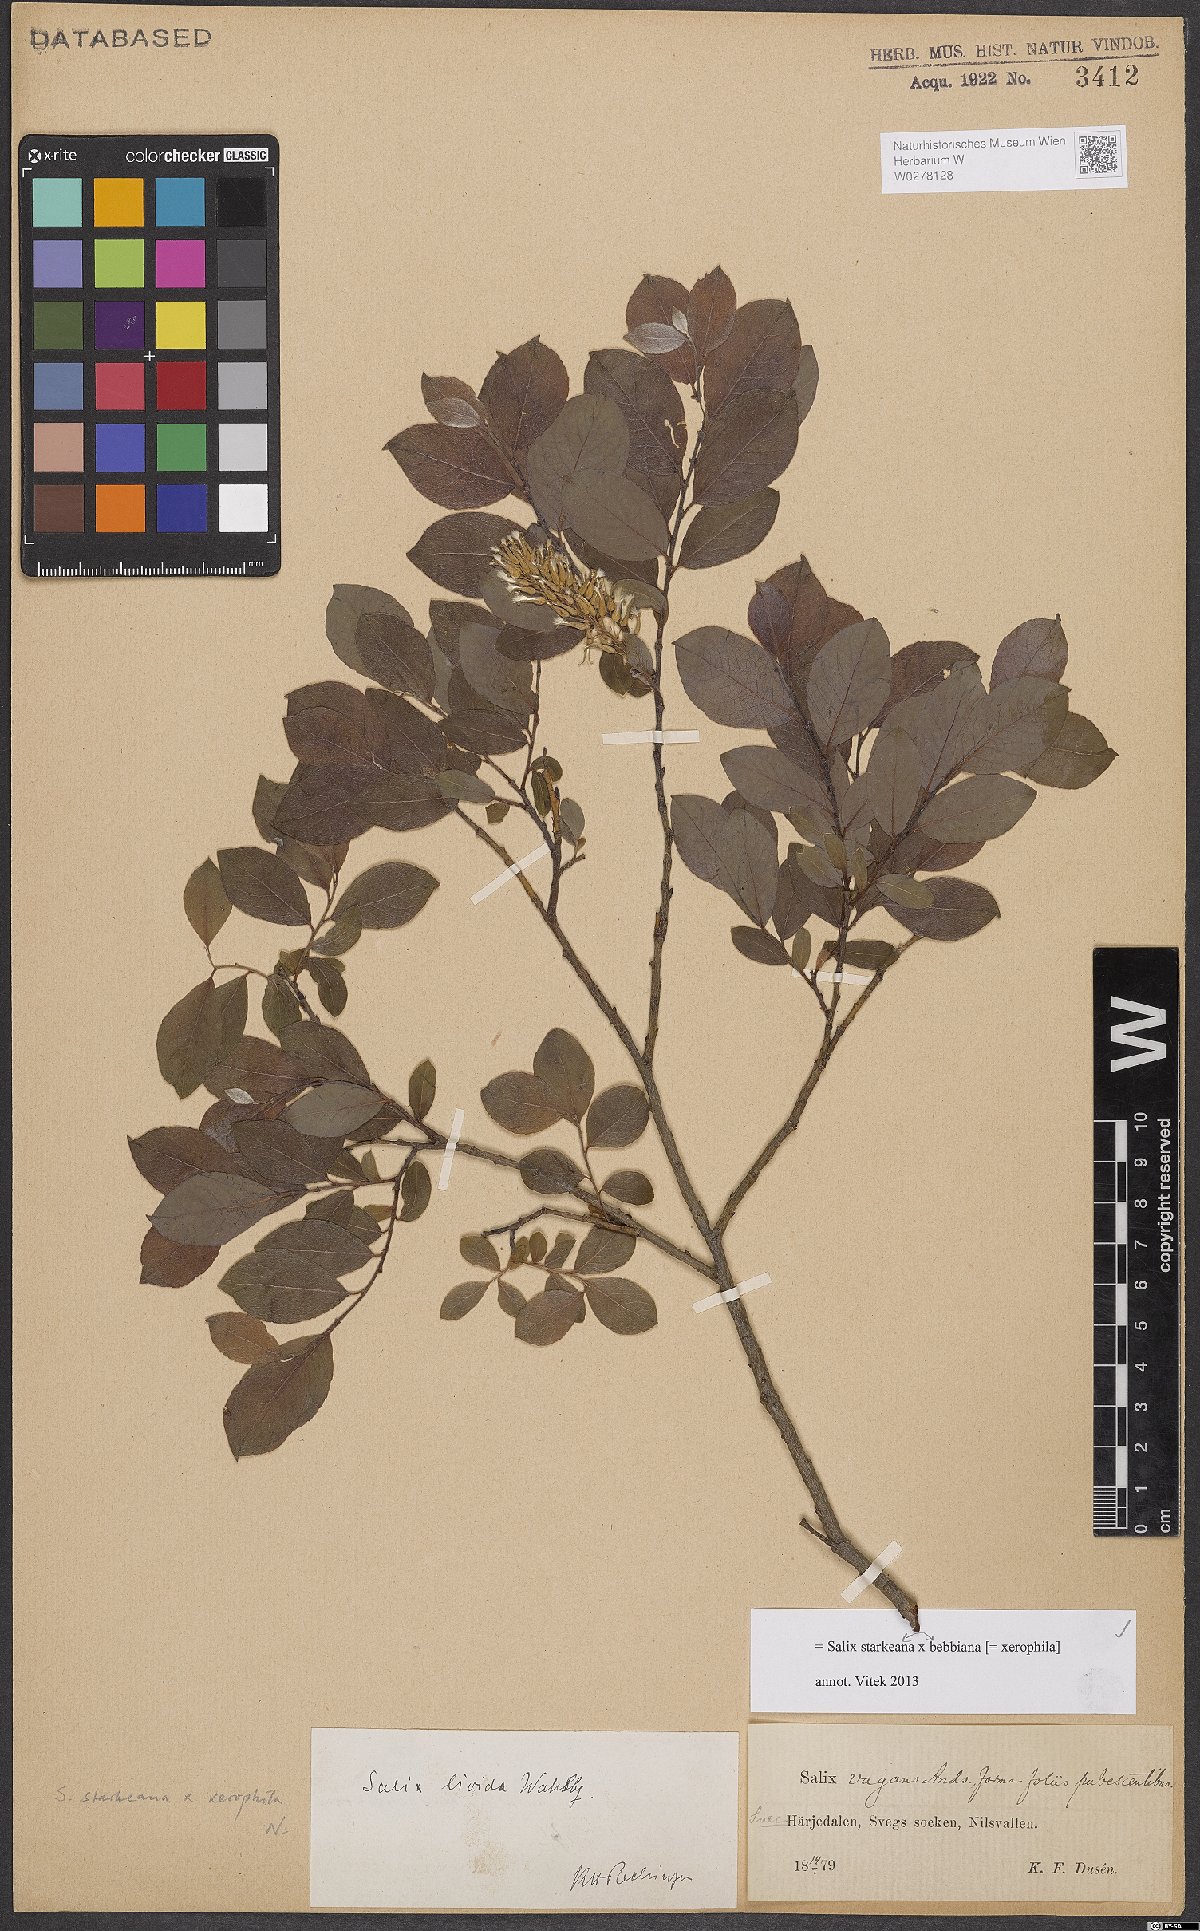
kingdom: Plantae
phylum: Tracheophyta
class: Magnoliopsida
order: Malpighiales
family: Salicaceae
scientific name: Salicaceae
